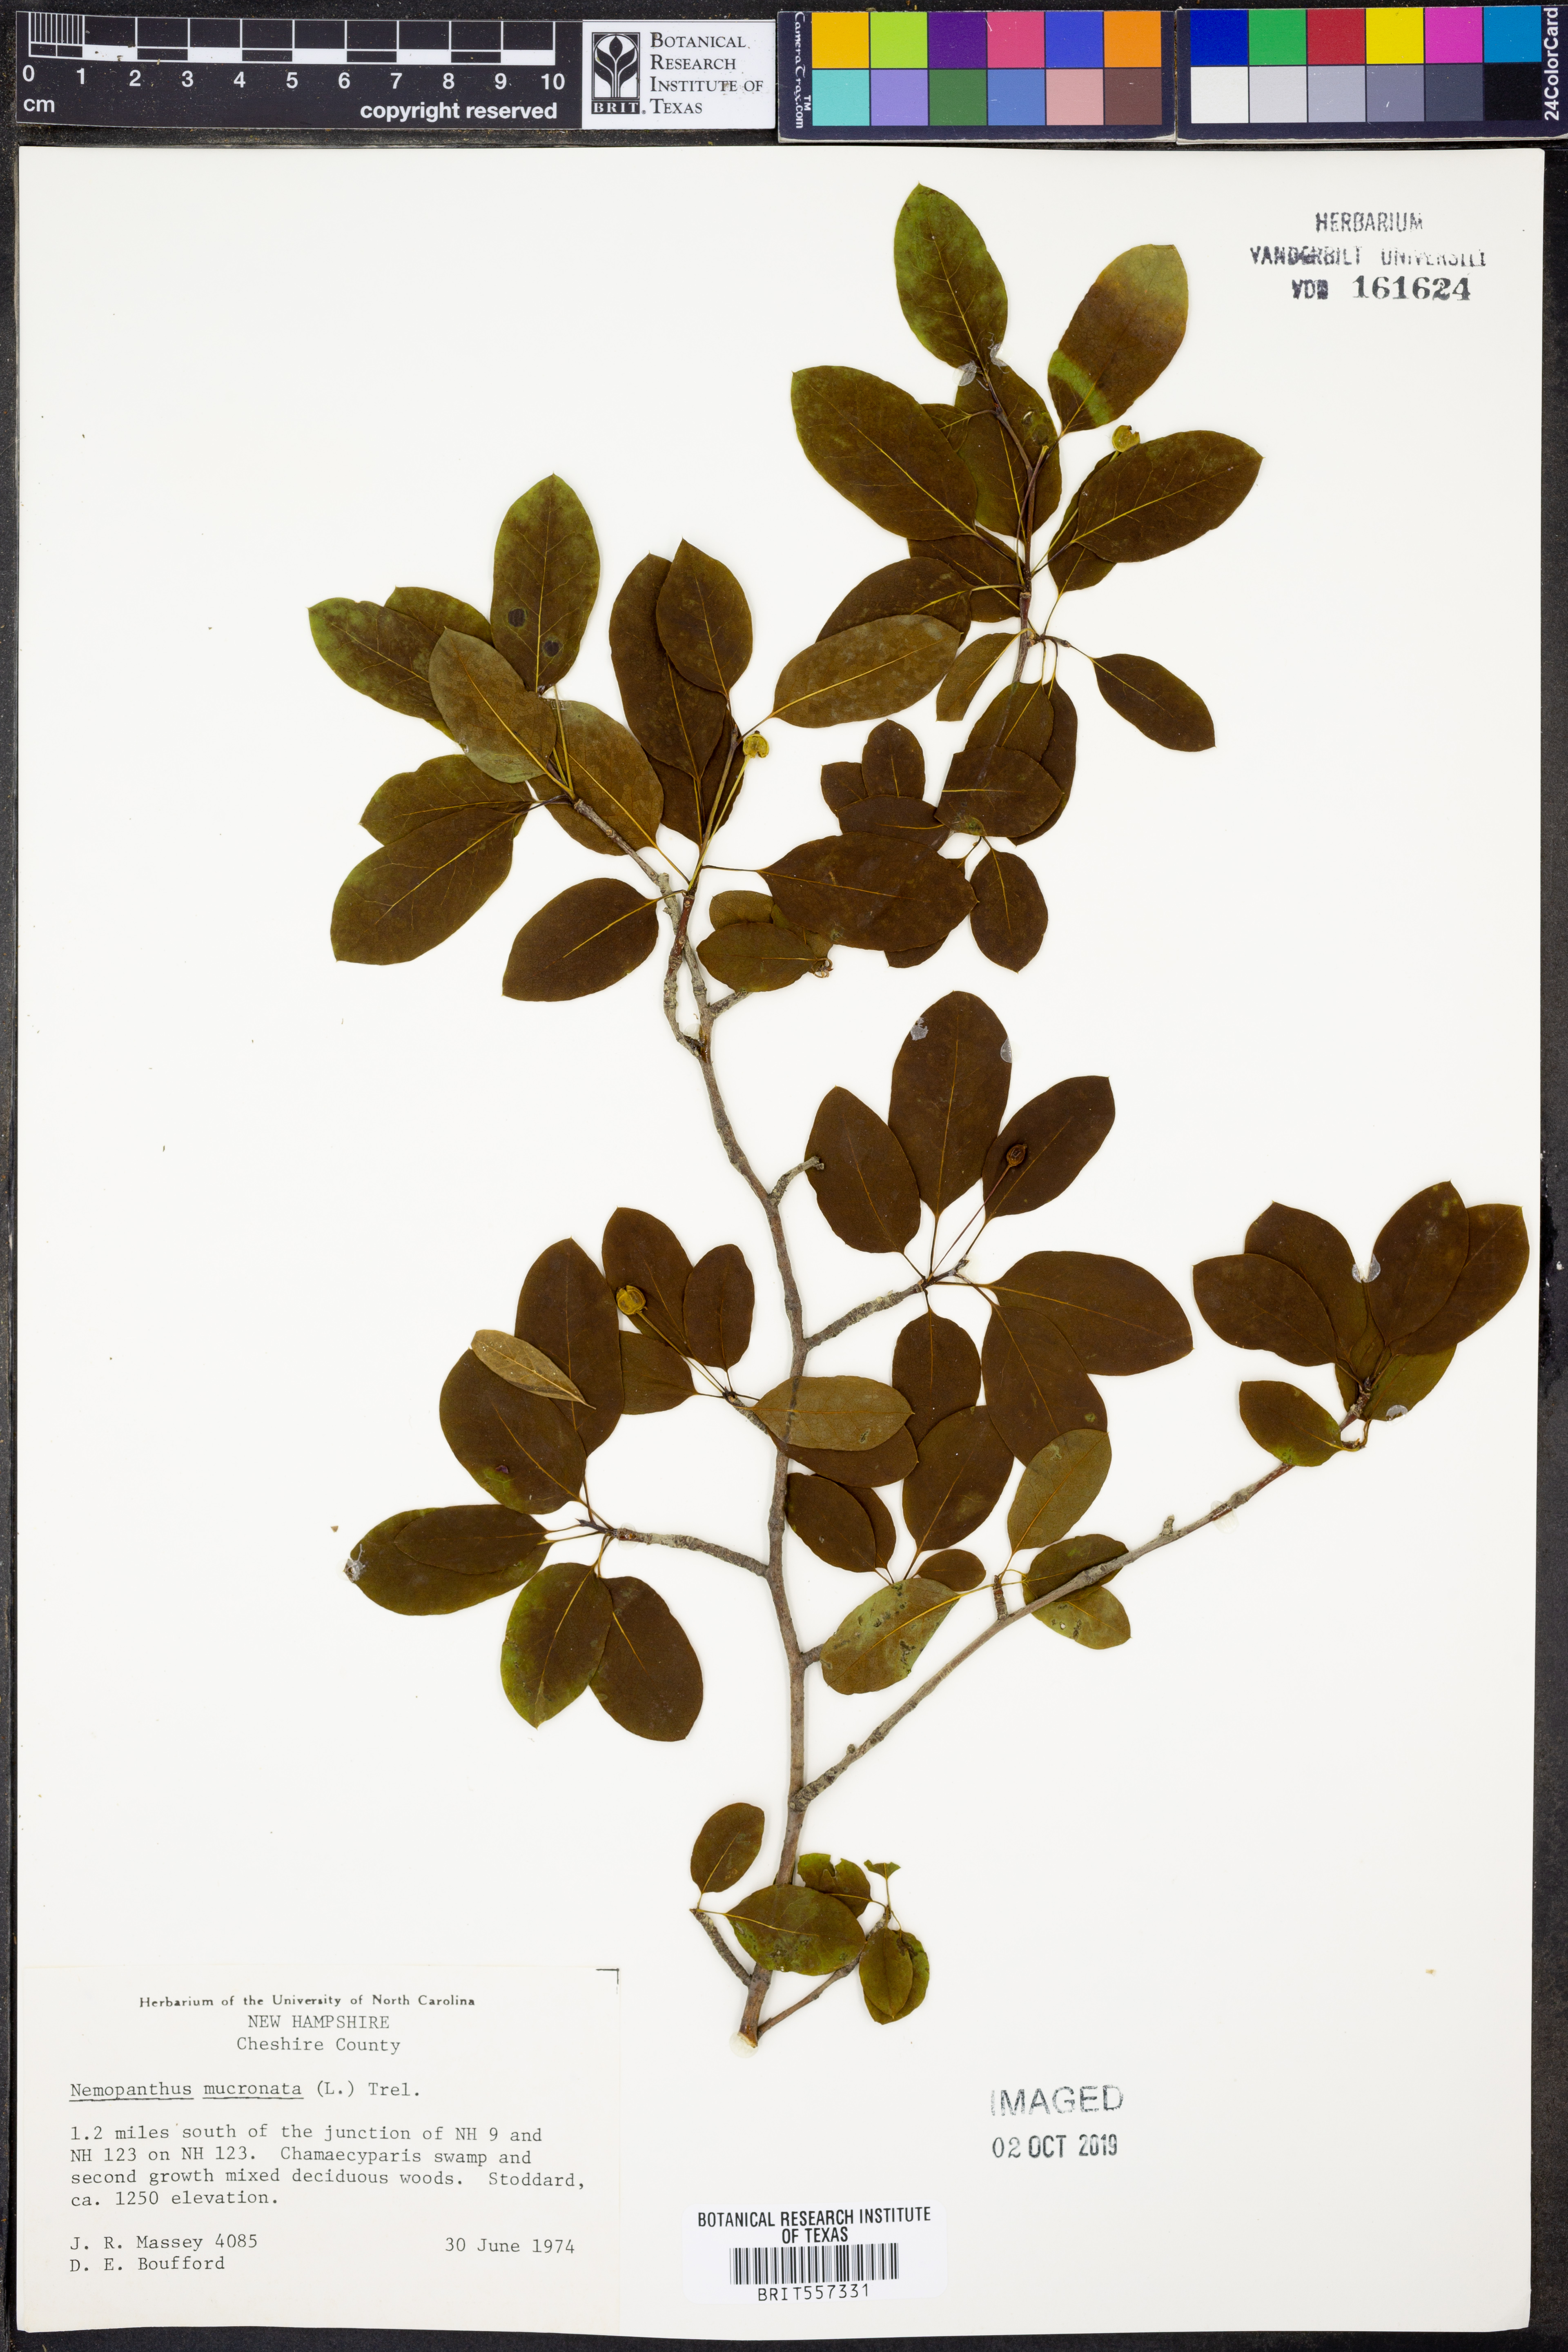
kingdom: Plantae
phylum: Tracheophyta
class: Magnoliopsida
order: Aquifoliales
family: Aquifoliaceae
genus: Ilex
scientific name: Ilex mucronata
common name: Catberry
